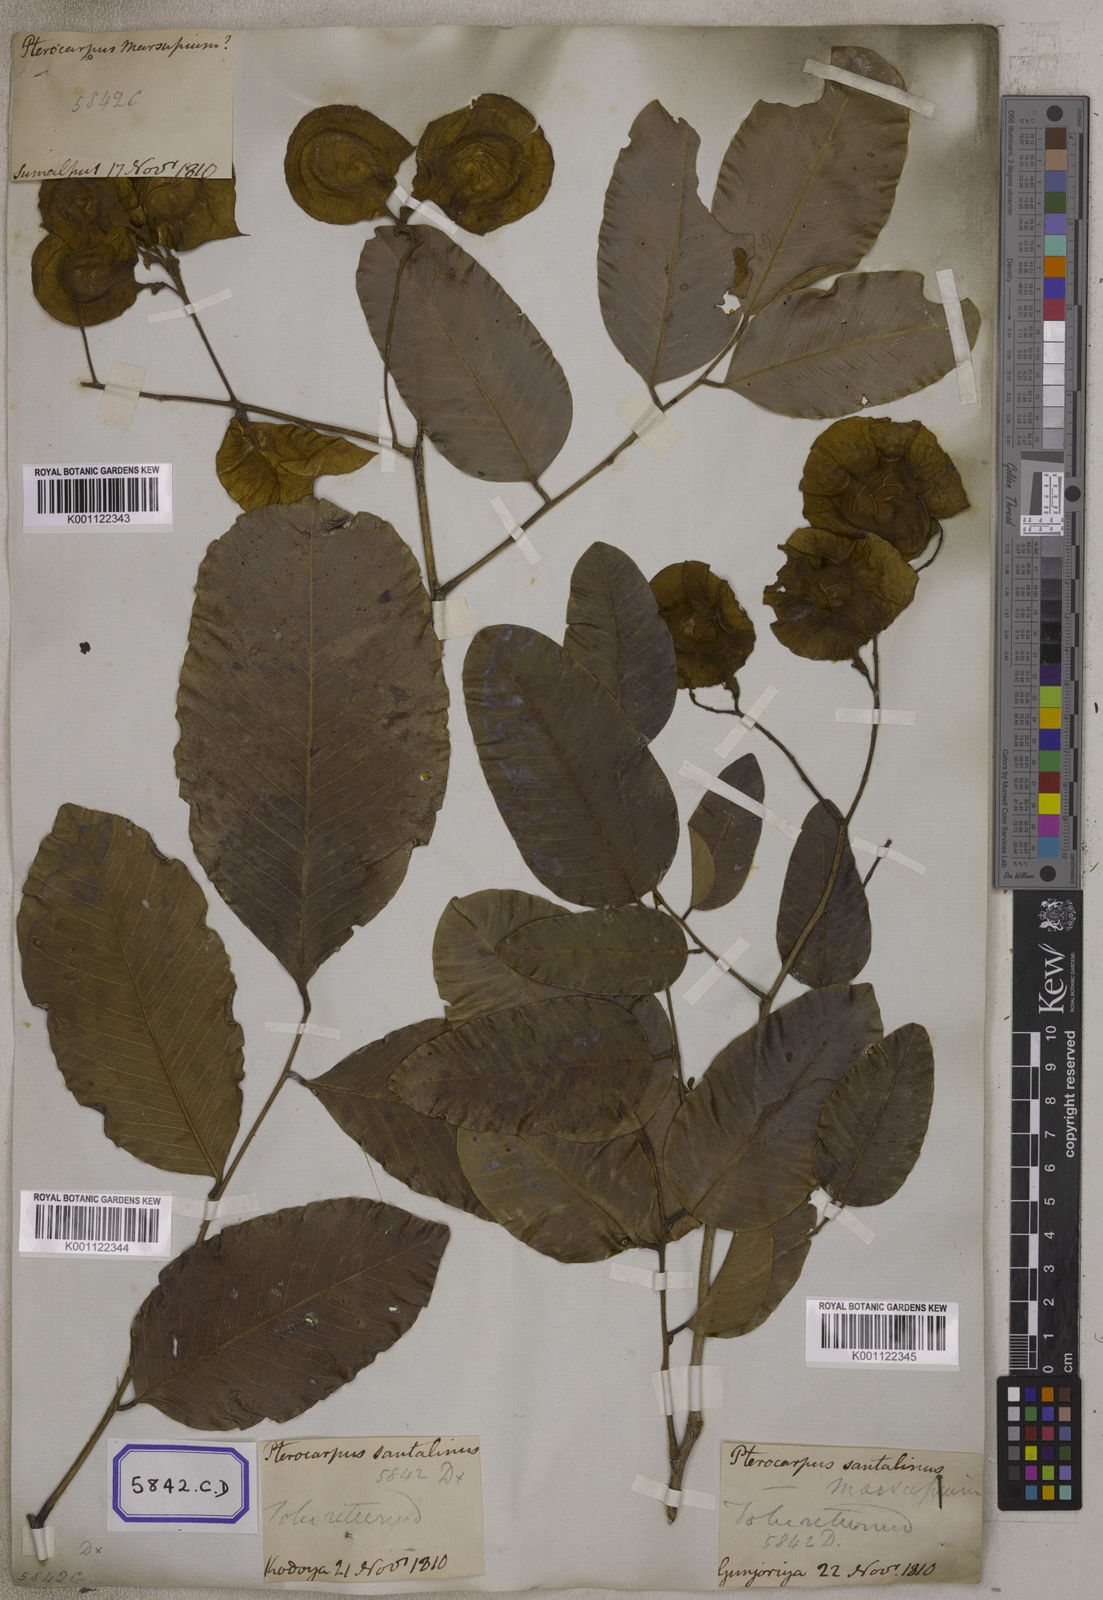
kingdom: Plantae
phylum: Tracheophyta
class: Magnoliopsida
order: Fabales
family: Fabaceae
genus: Pterocarpus
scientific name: Pterocarpus marsupium
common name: East indian/malabar kino
